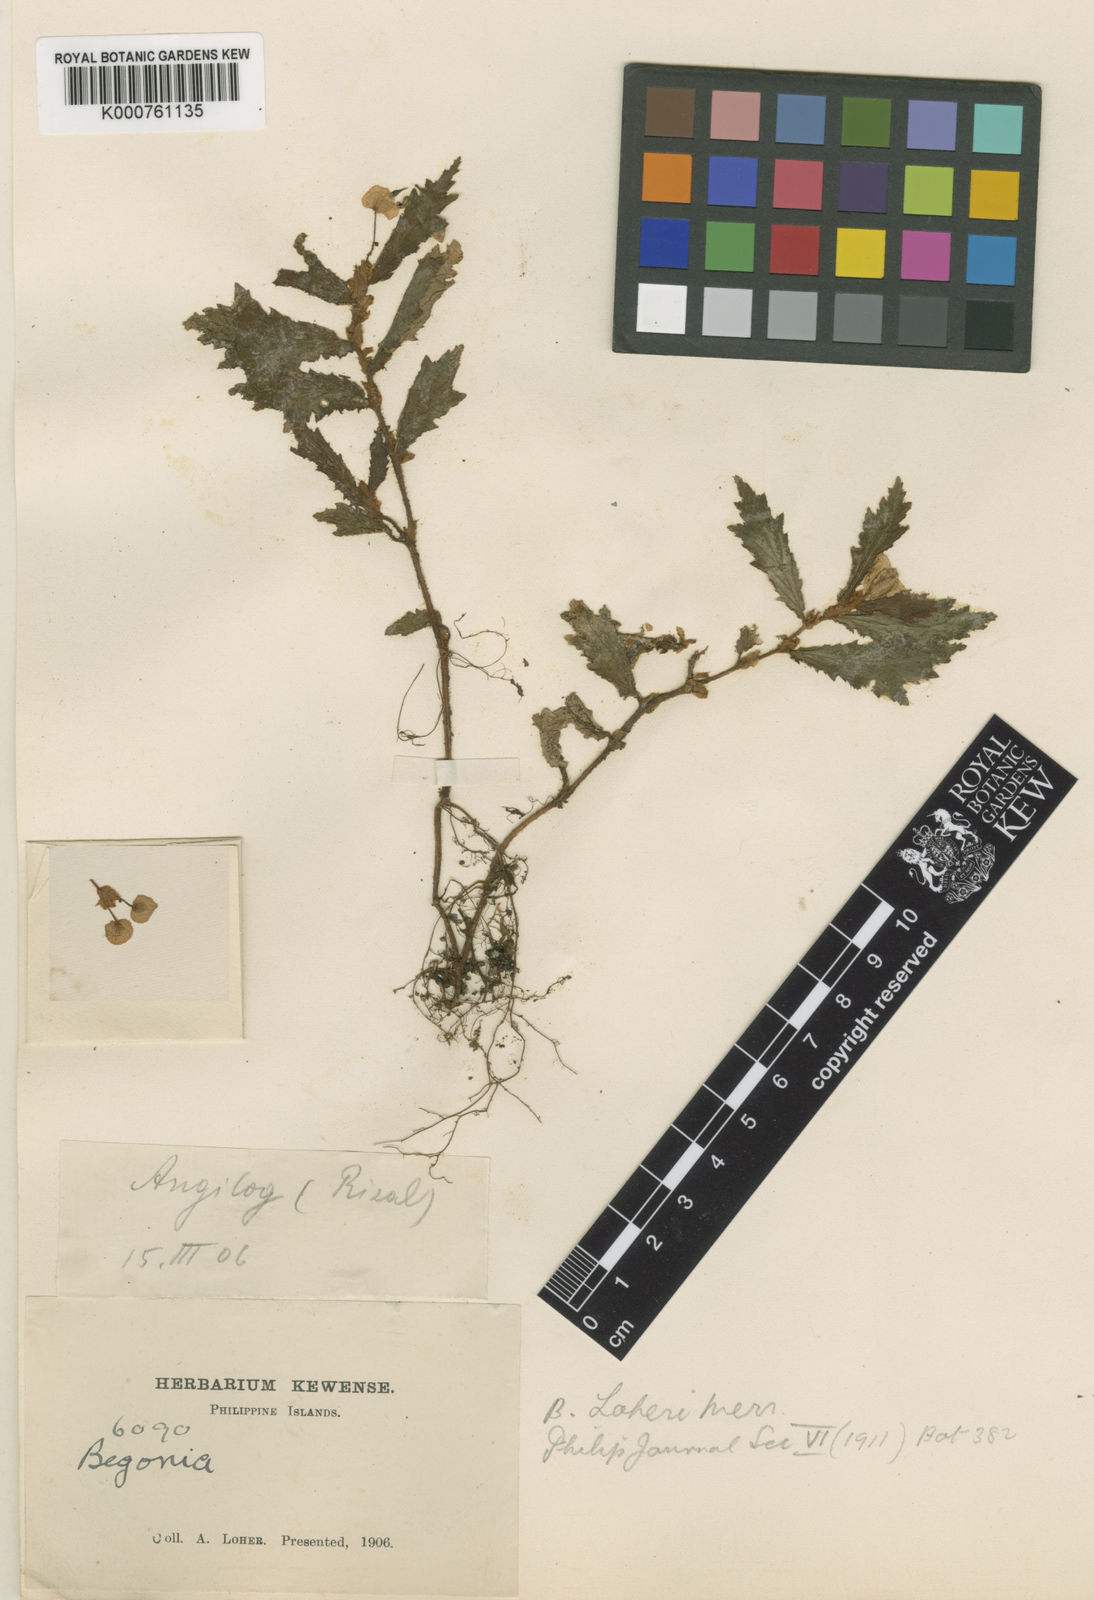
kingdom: Plantae
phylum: Tracheophyta
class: Magnoliopsida
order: Cucurbitales
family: Begoniaceae
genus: Begonia
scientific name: Begonia loheri
